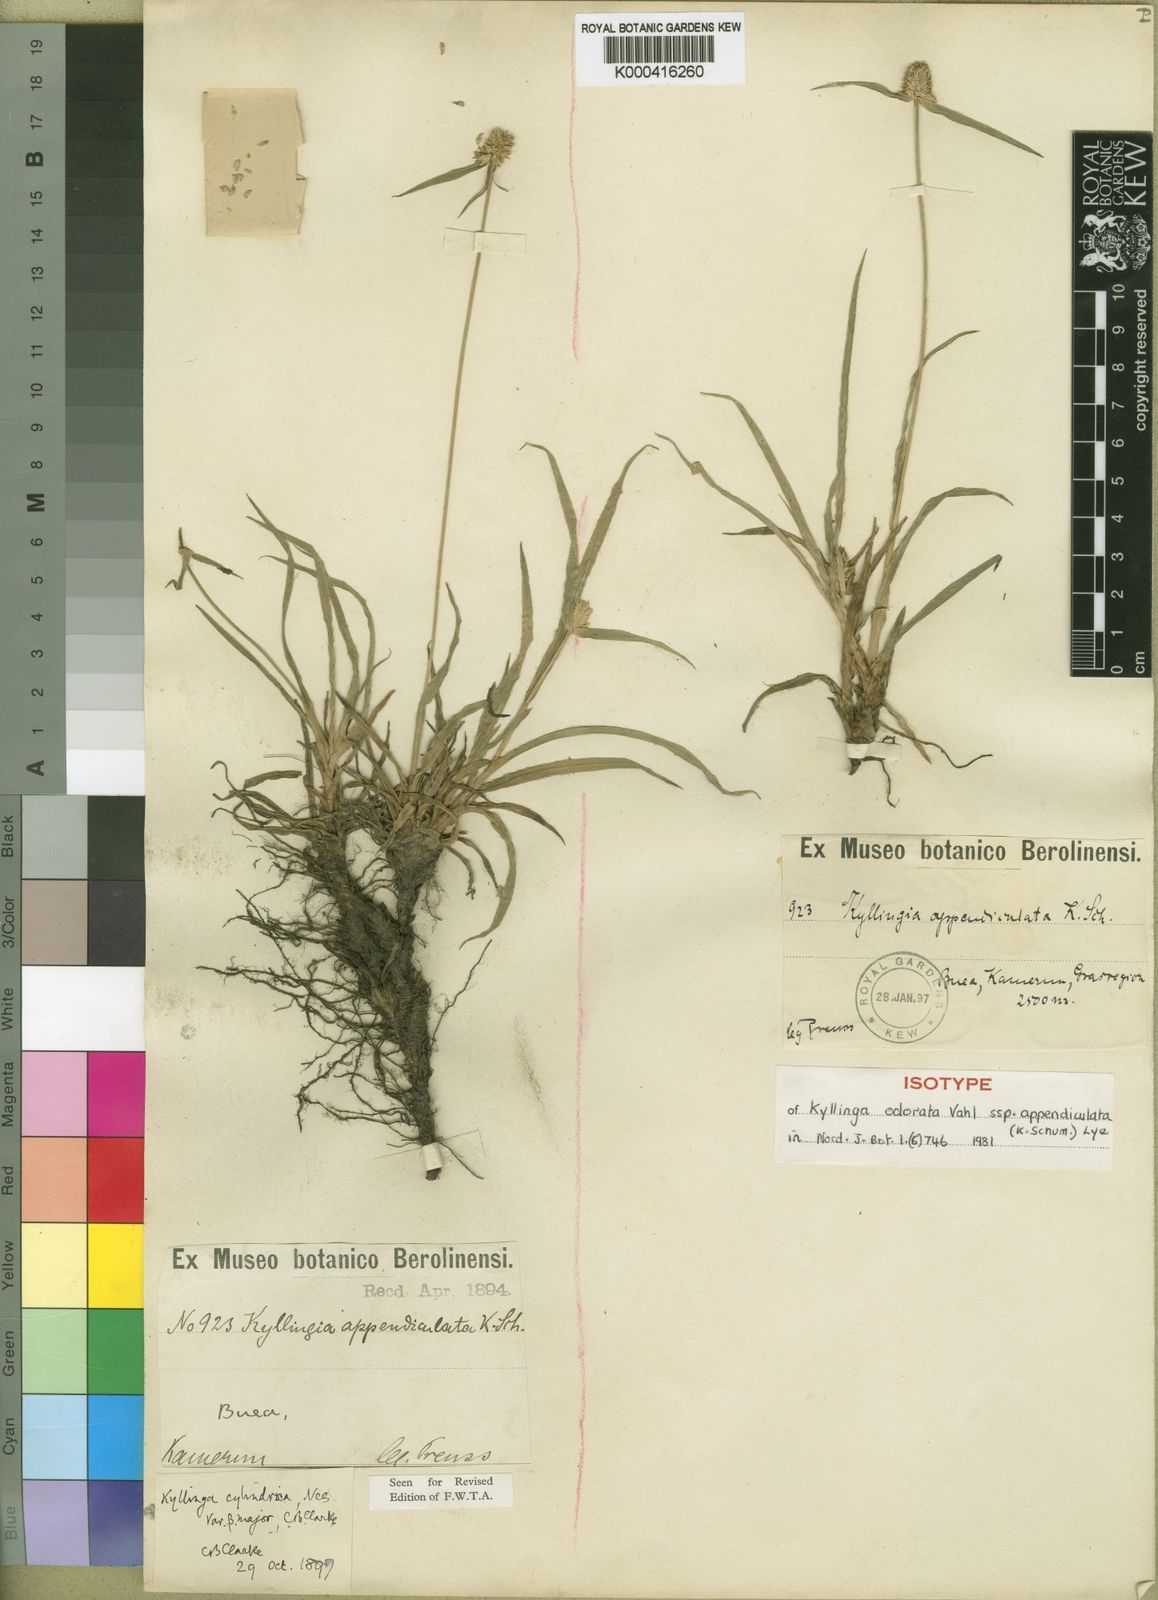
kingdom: Plantae
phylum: Tracheophyta
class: Liliopsida
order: Poales
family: Cyperaceae
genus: Cyperus
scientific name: Cyperus sesquiflorus
